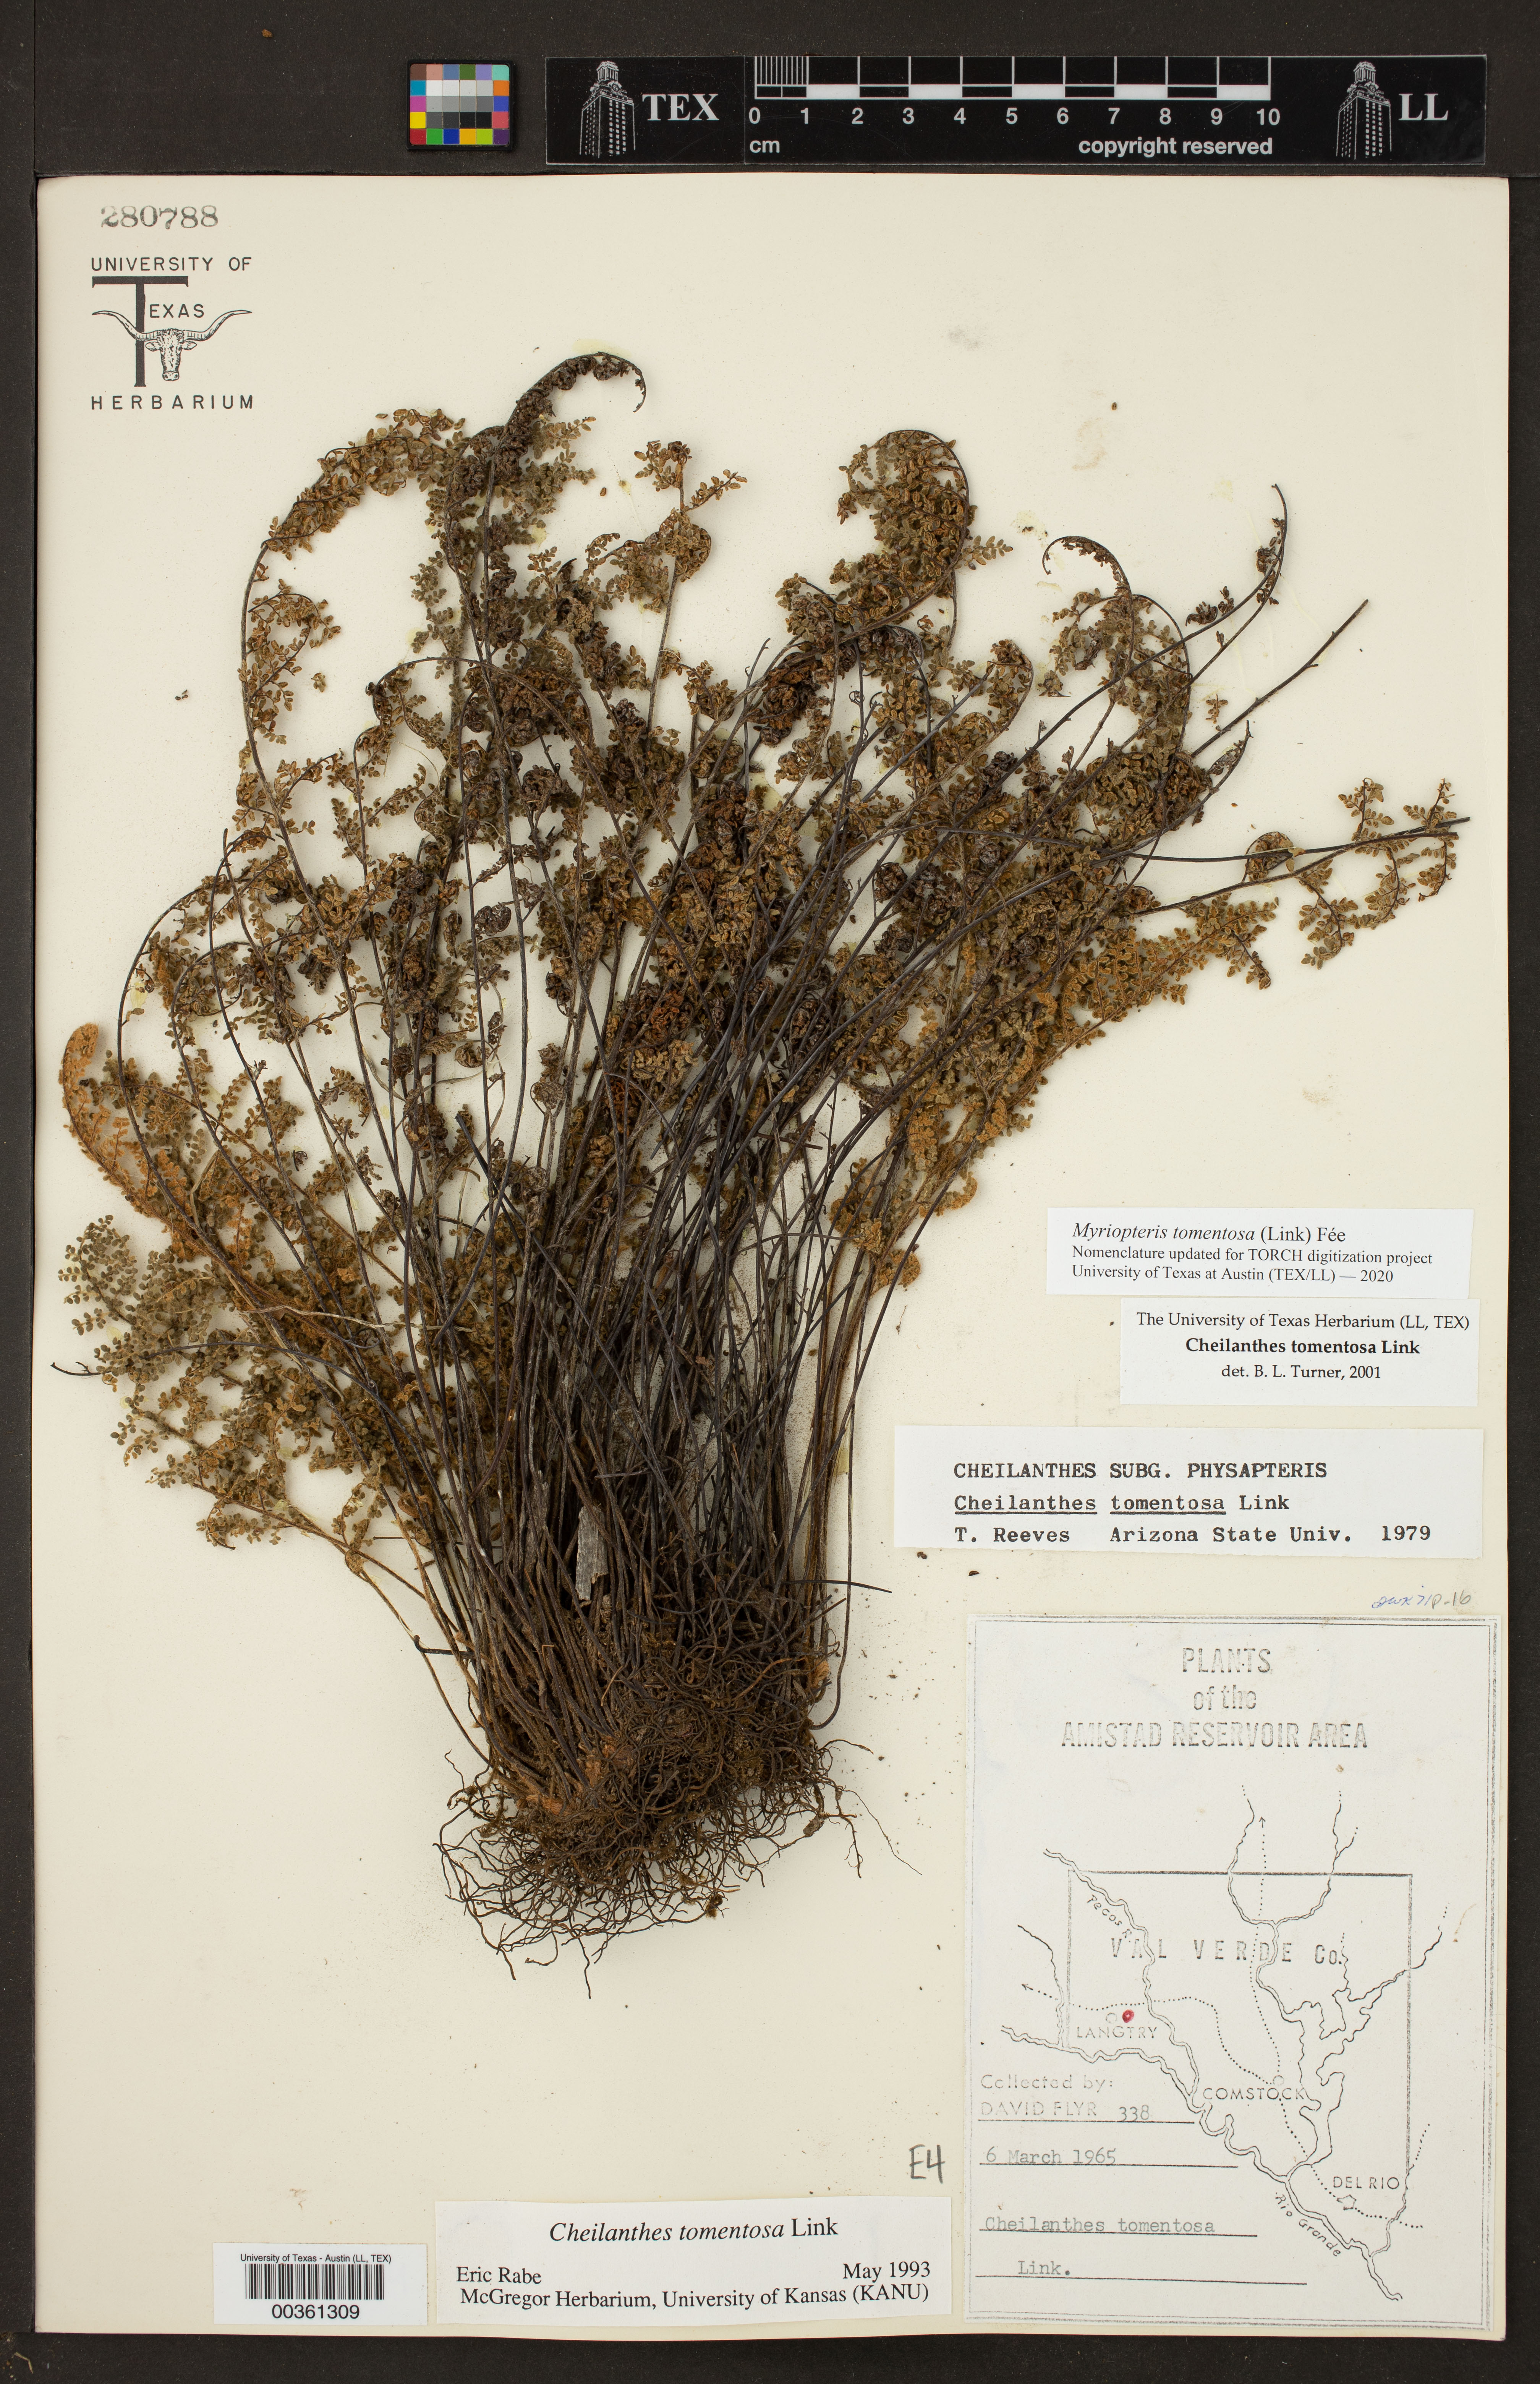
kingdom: Plantae
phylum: Tracheophyta
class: Polypodiopsida
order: Polypodiales
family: Pteridaceae
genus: Myriopteris
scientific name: Myriopteris tomentosa
